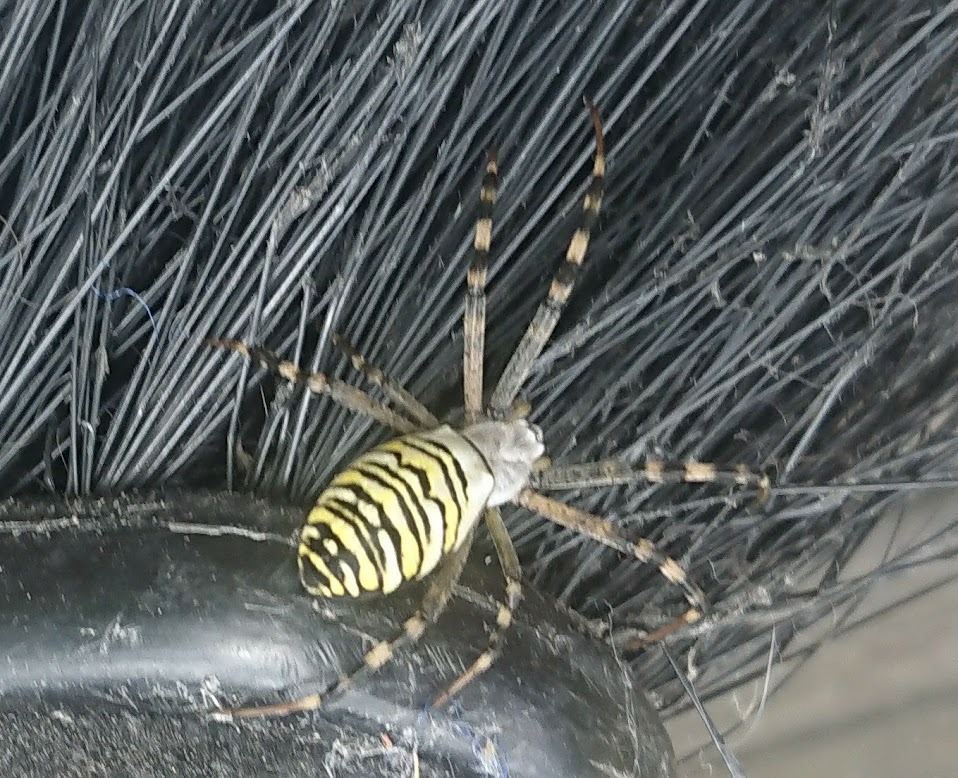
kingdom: Animalia
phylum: Arthropoda
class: Arachnida
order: Araneae
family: Araneidae
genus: Argiope
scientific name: Argiope bruennichi
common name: Hvepseedderkop
